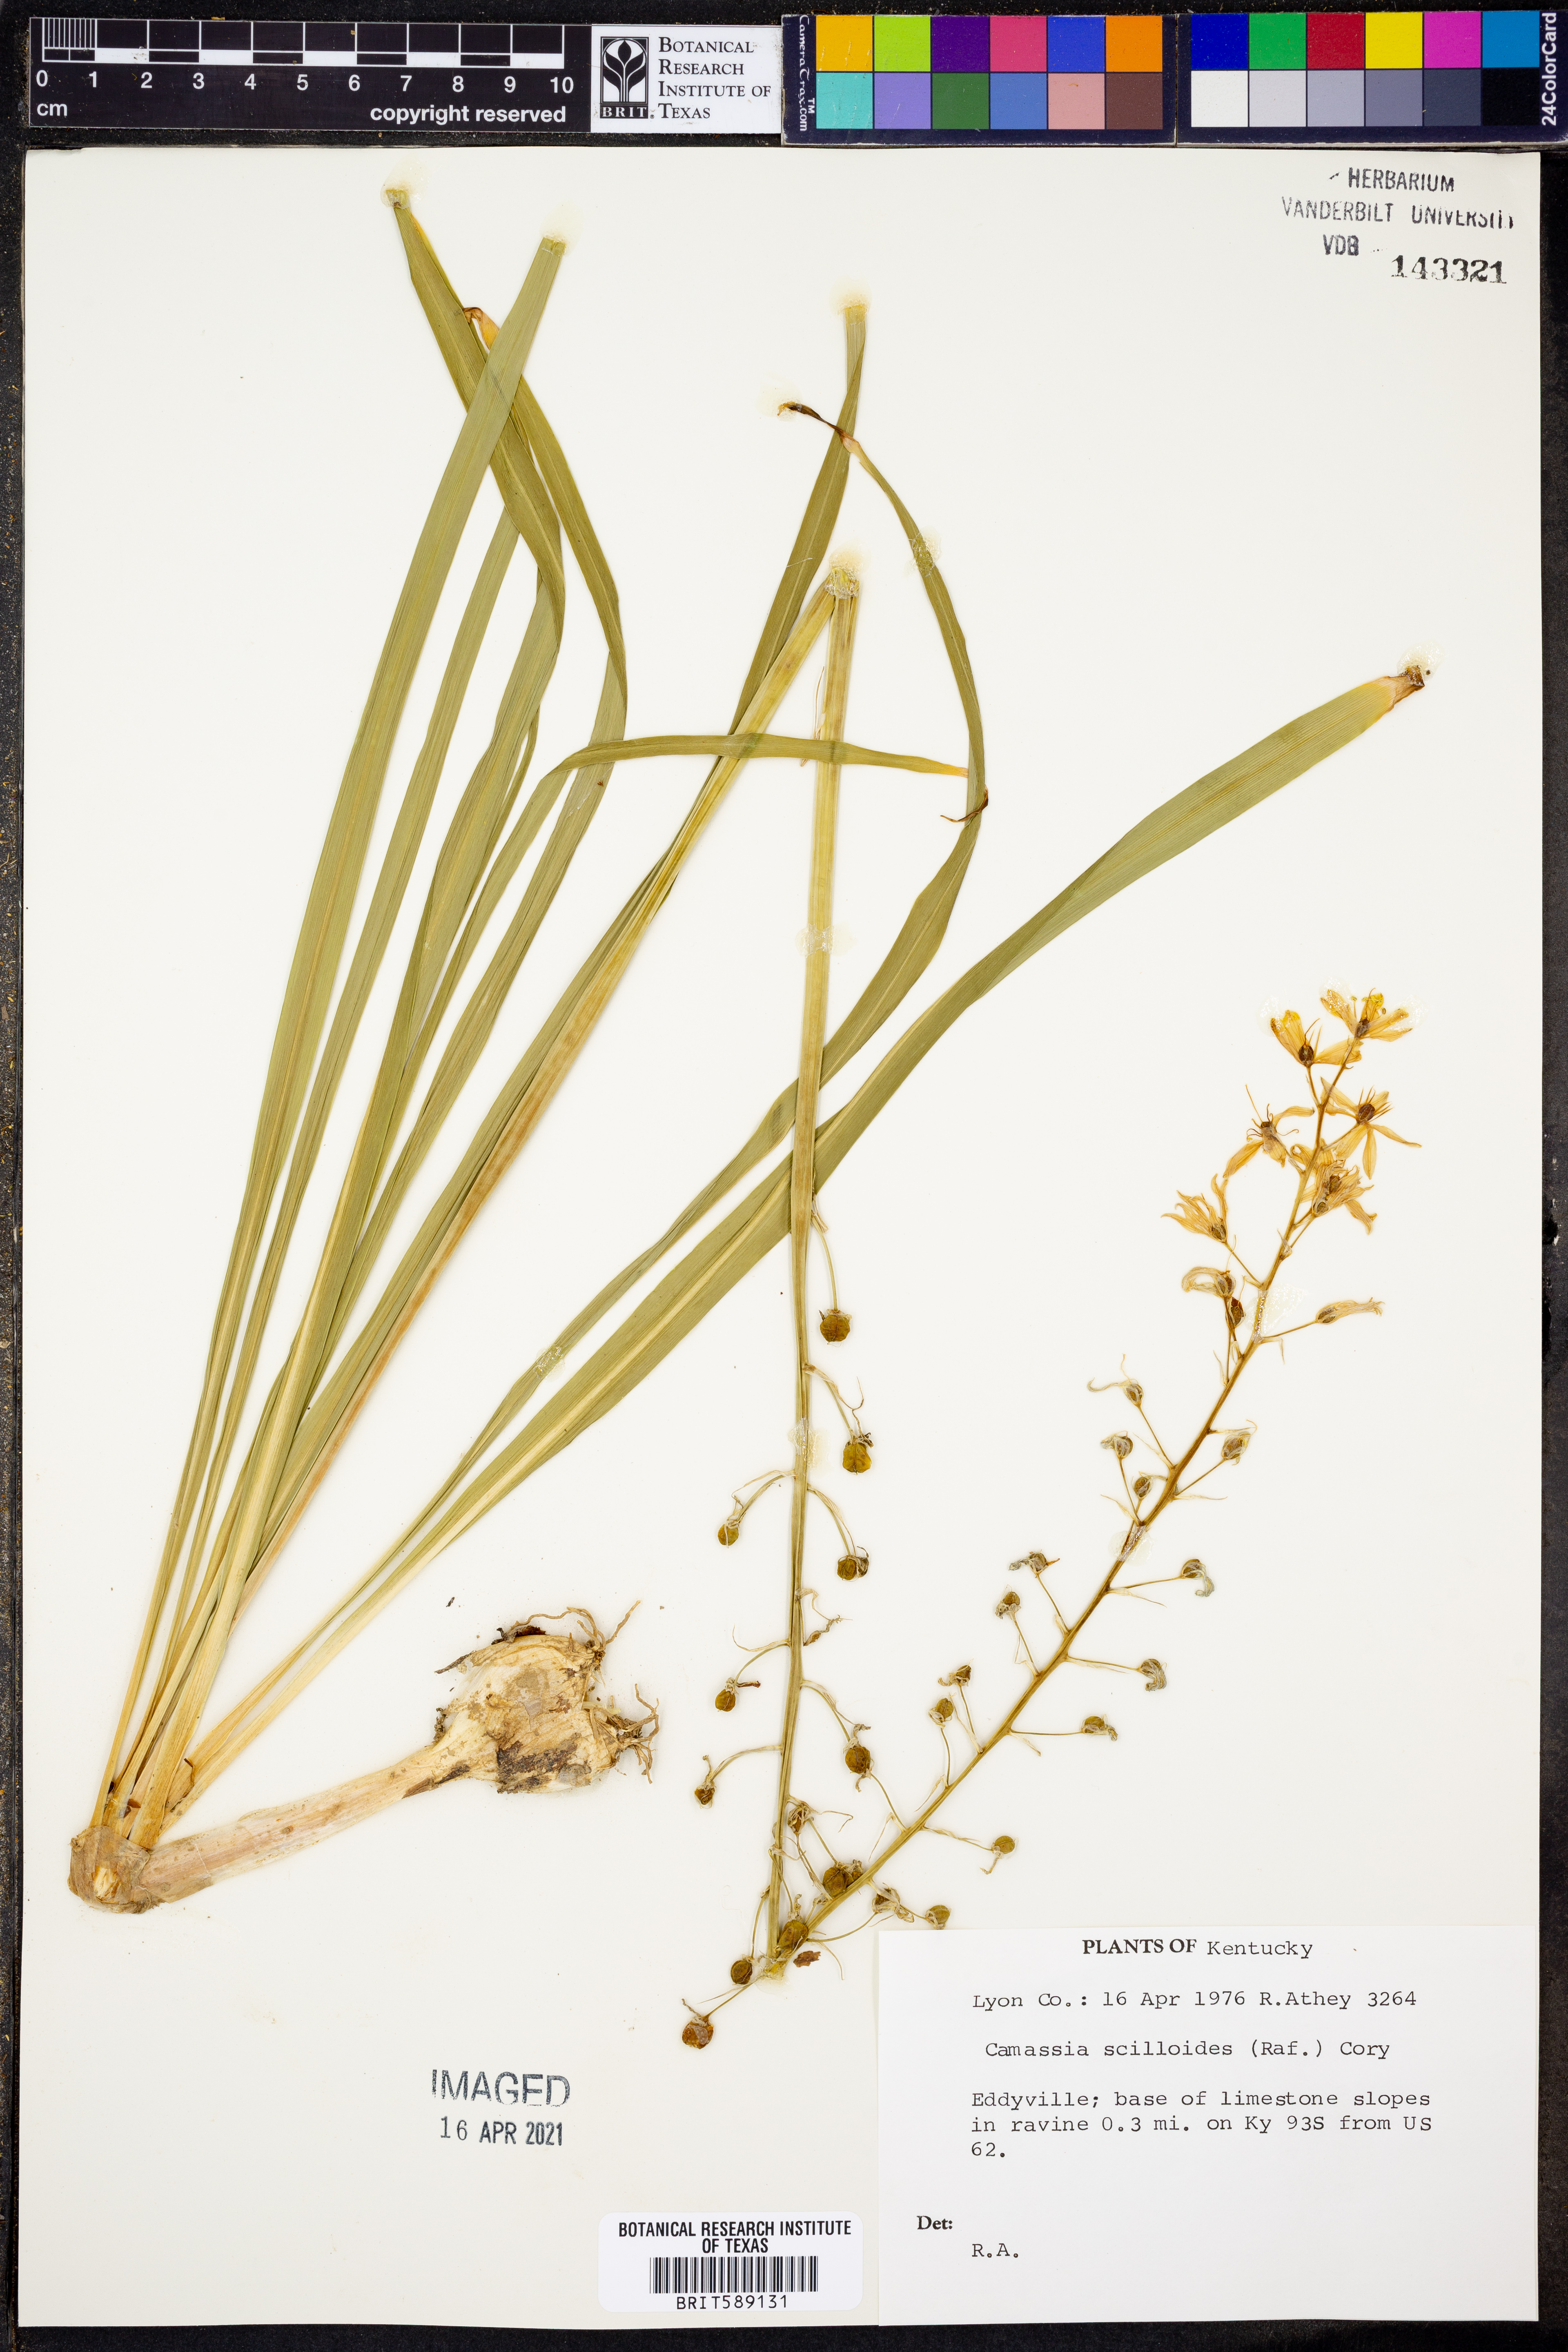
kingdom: Plantae
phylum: Tracheophyta
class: Liliopsida
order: Asparagales
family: Asparagaceae
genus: Camassia
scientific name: Camassia scilloides
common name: Wild hyacinth
